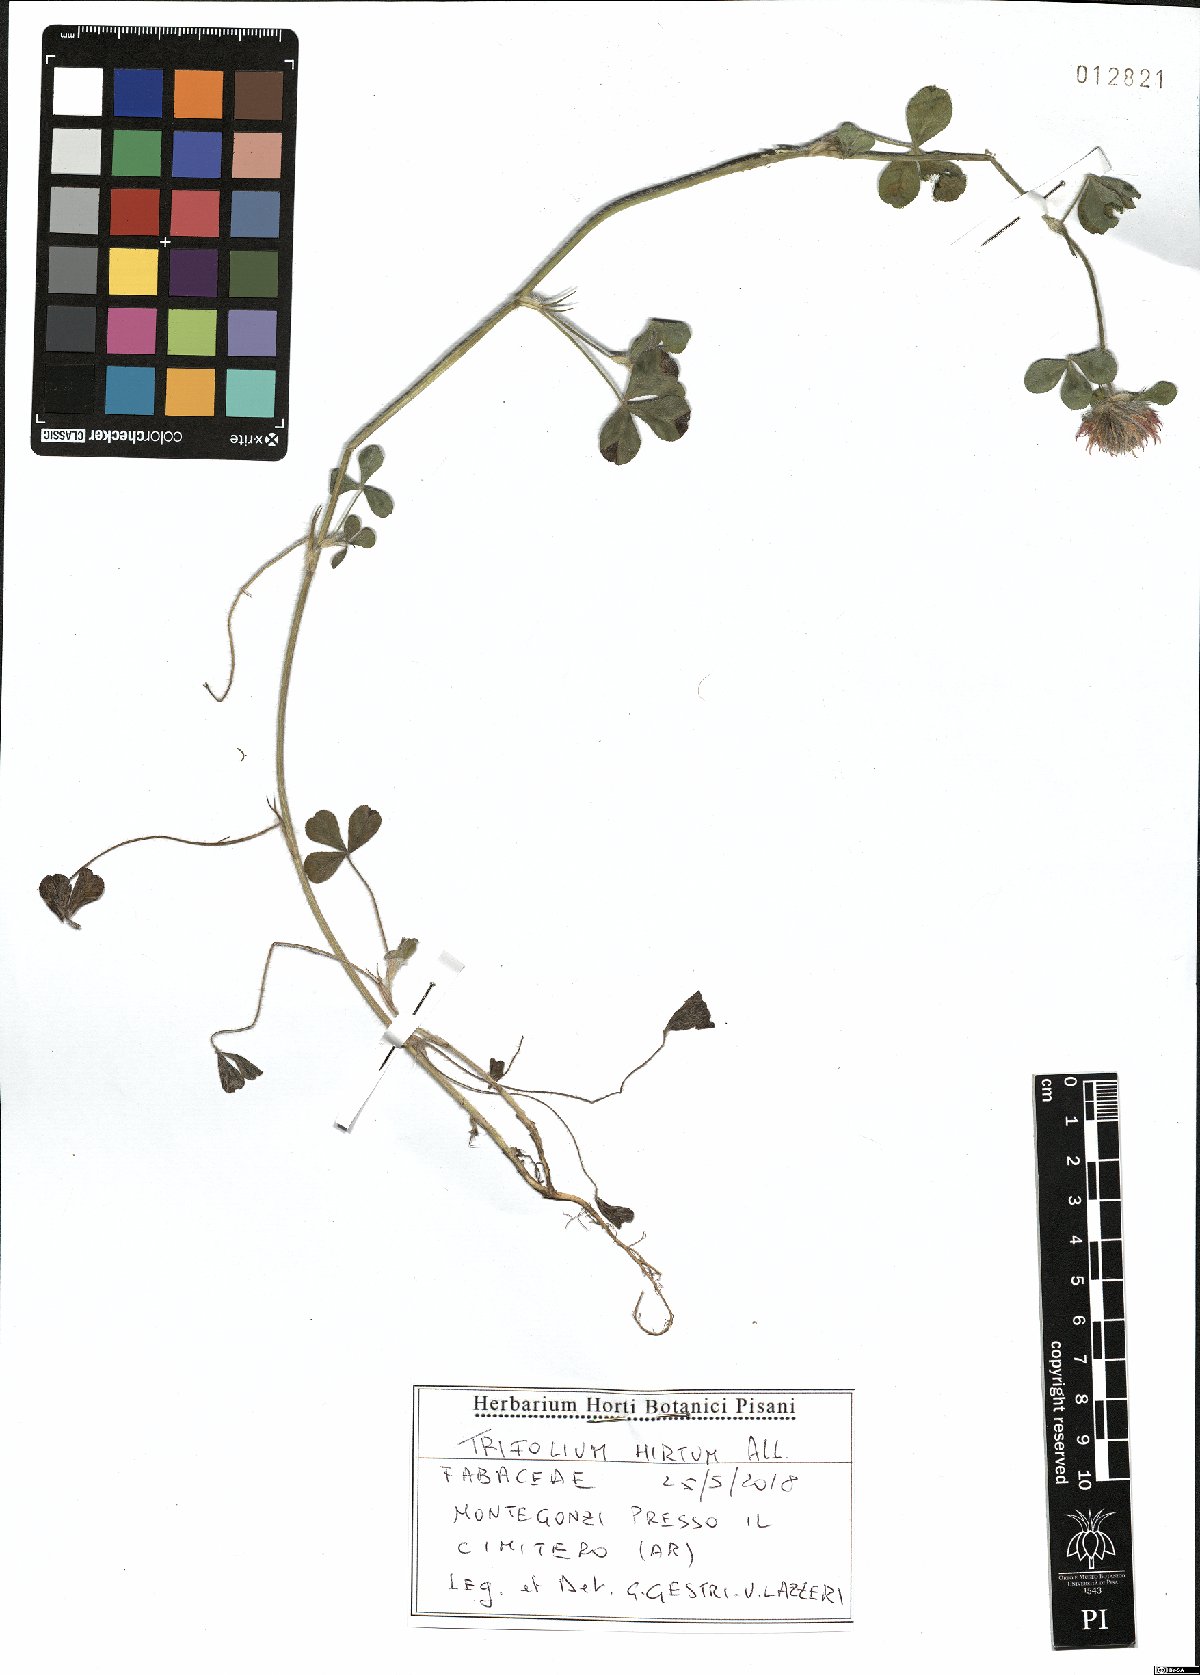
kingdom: Plantae
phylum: Tracheophyta
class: Magnoliopsida
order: Fabales
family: Fabaceae
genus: Trifolium
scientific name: Trifolium hirtum
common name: Rose clover
